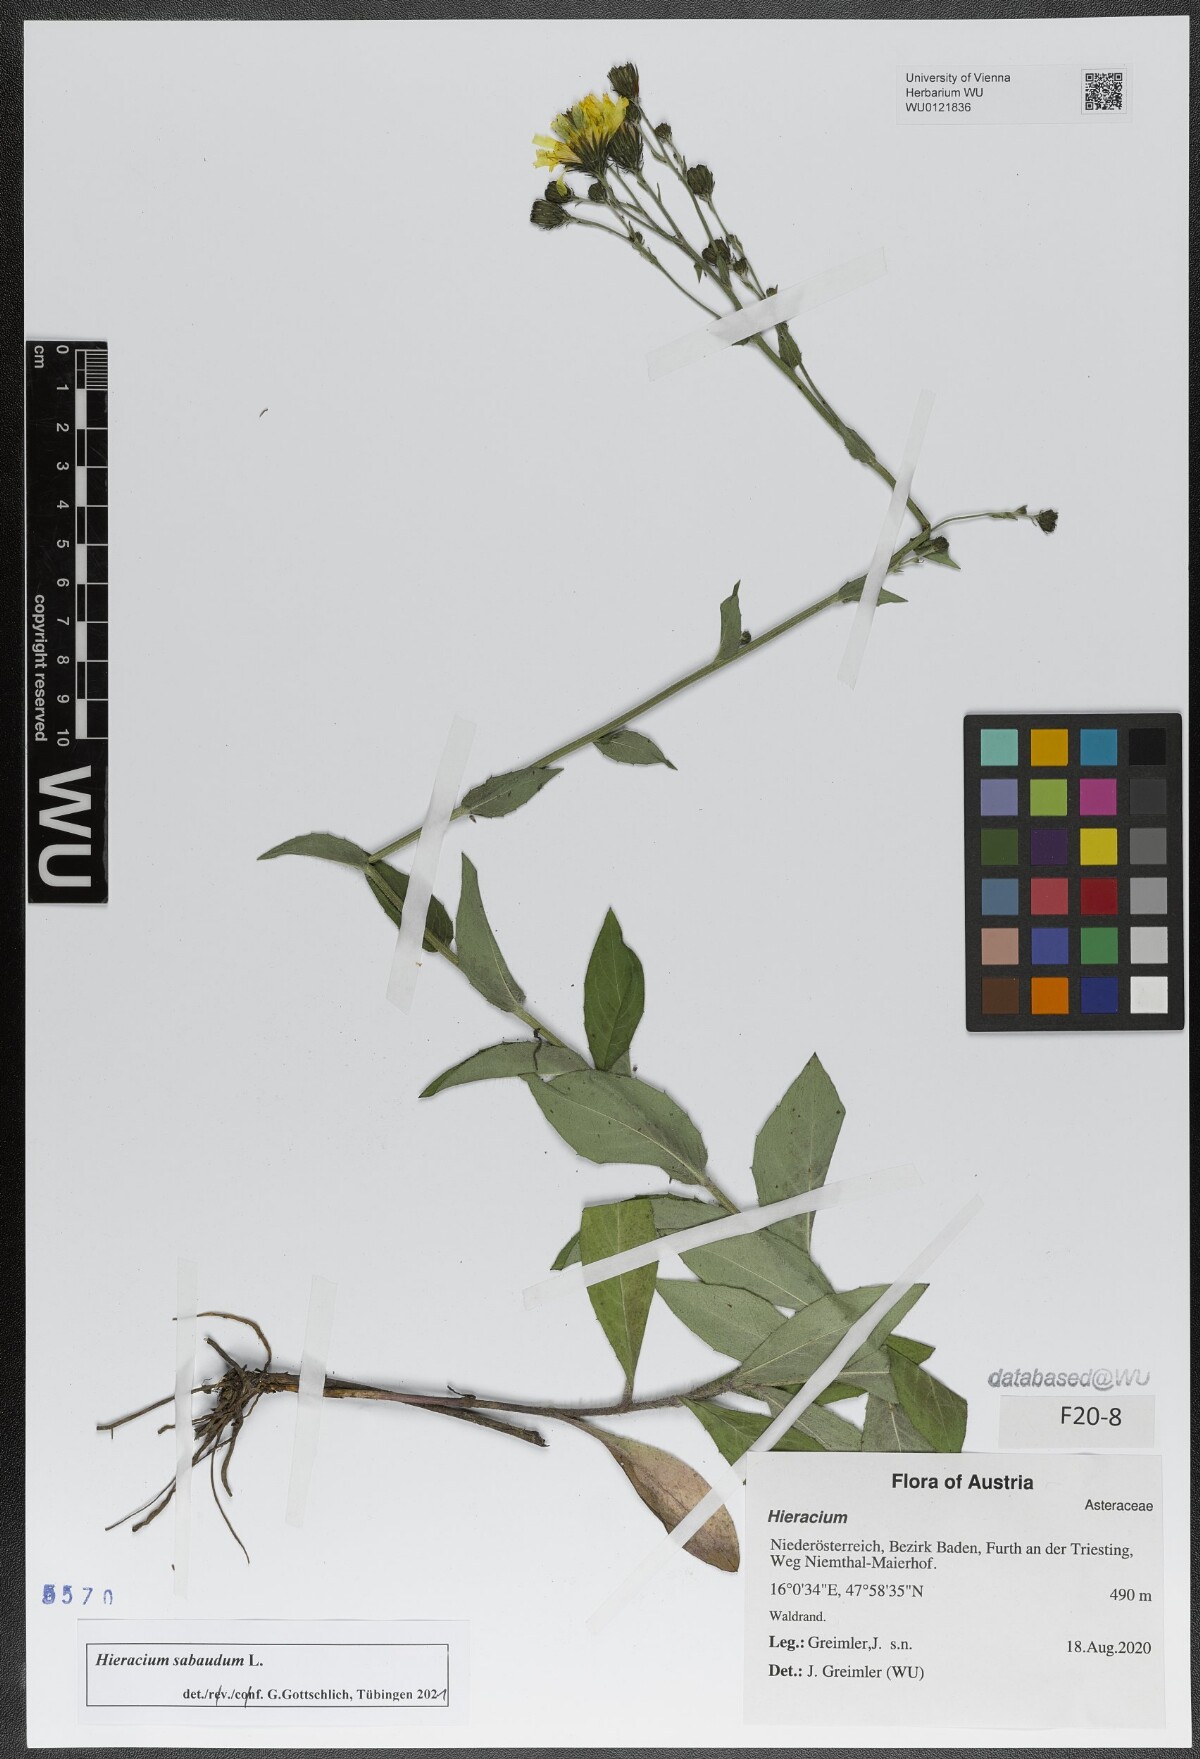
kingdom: Plantae
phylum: Tracheophyta
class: Magnoliopsida
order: Asterales
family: Asteraceae
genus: Hieracium
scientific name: Hieracium sabaudum
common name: New england hawkweed
